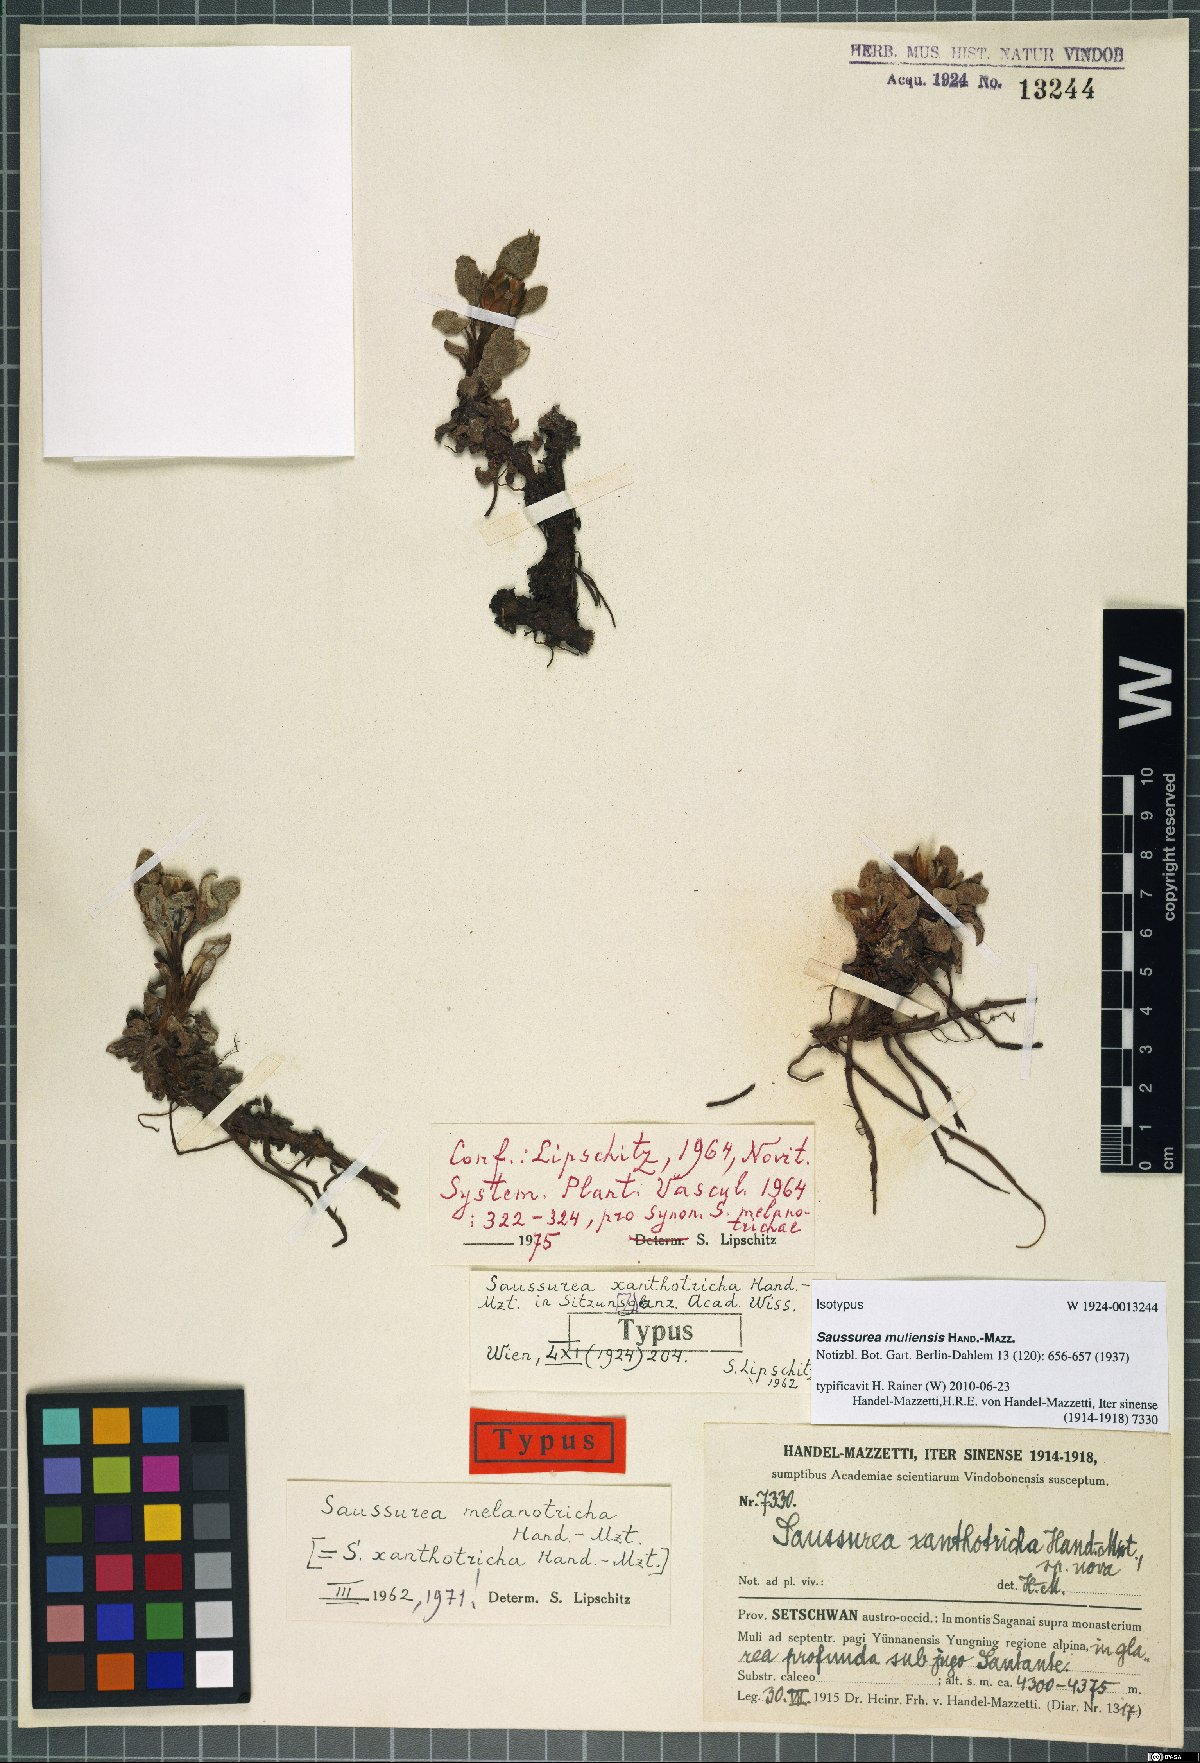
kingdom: Plantae
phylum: Tracheophyta
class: Magnoliopsida
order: Asterales
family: Asteraceae
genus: Saussurea
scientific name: Saussurea melanotricha
